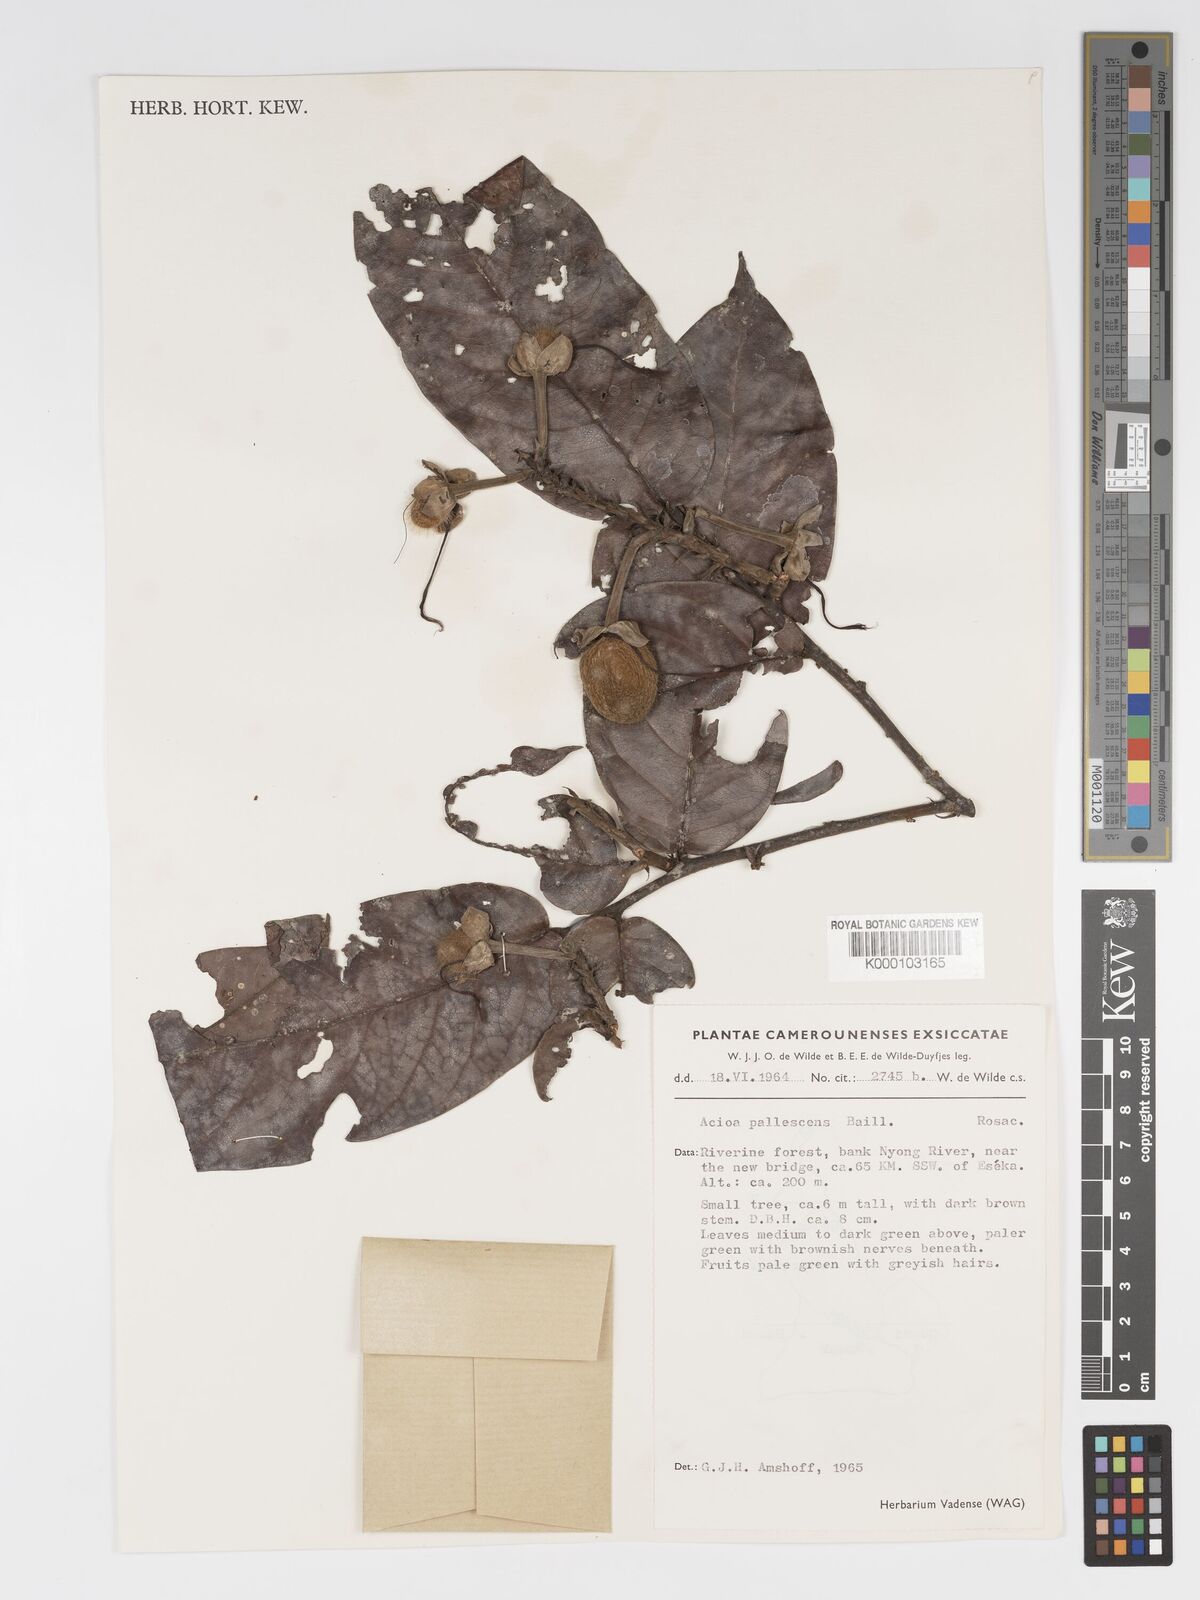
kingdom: Plantae
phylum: Tracheophyta
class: Magnoliopsida
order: Malpighiales
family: Chrysobalanaceae
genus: Dactyladenia
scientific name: Dactyladenia pallescens
